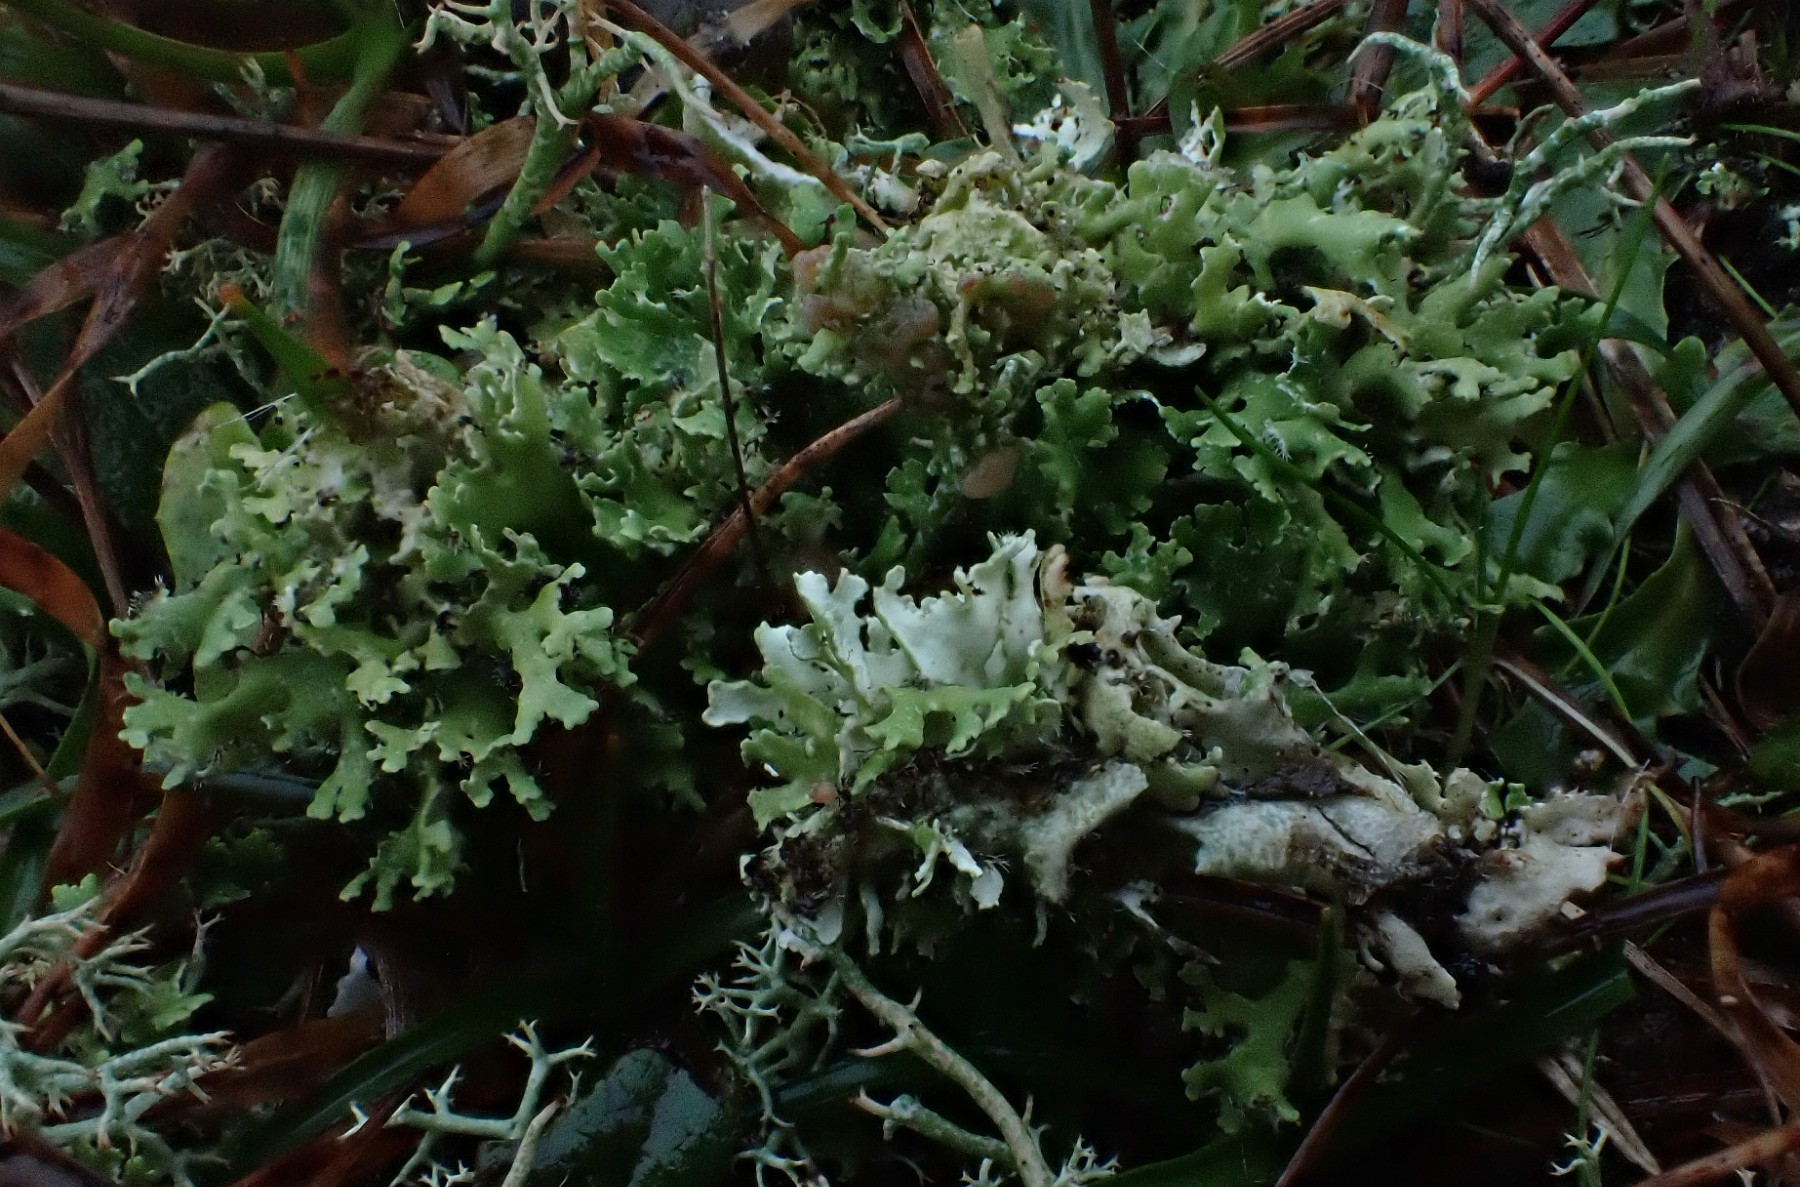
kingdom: Fungi
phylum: Ascomycota
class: Lecanoromycetes
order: Lecanorales
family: Cladoniaceae
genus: Cladonia
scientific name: Cladonia foliacea
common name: fliget bægerlav
